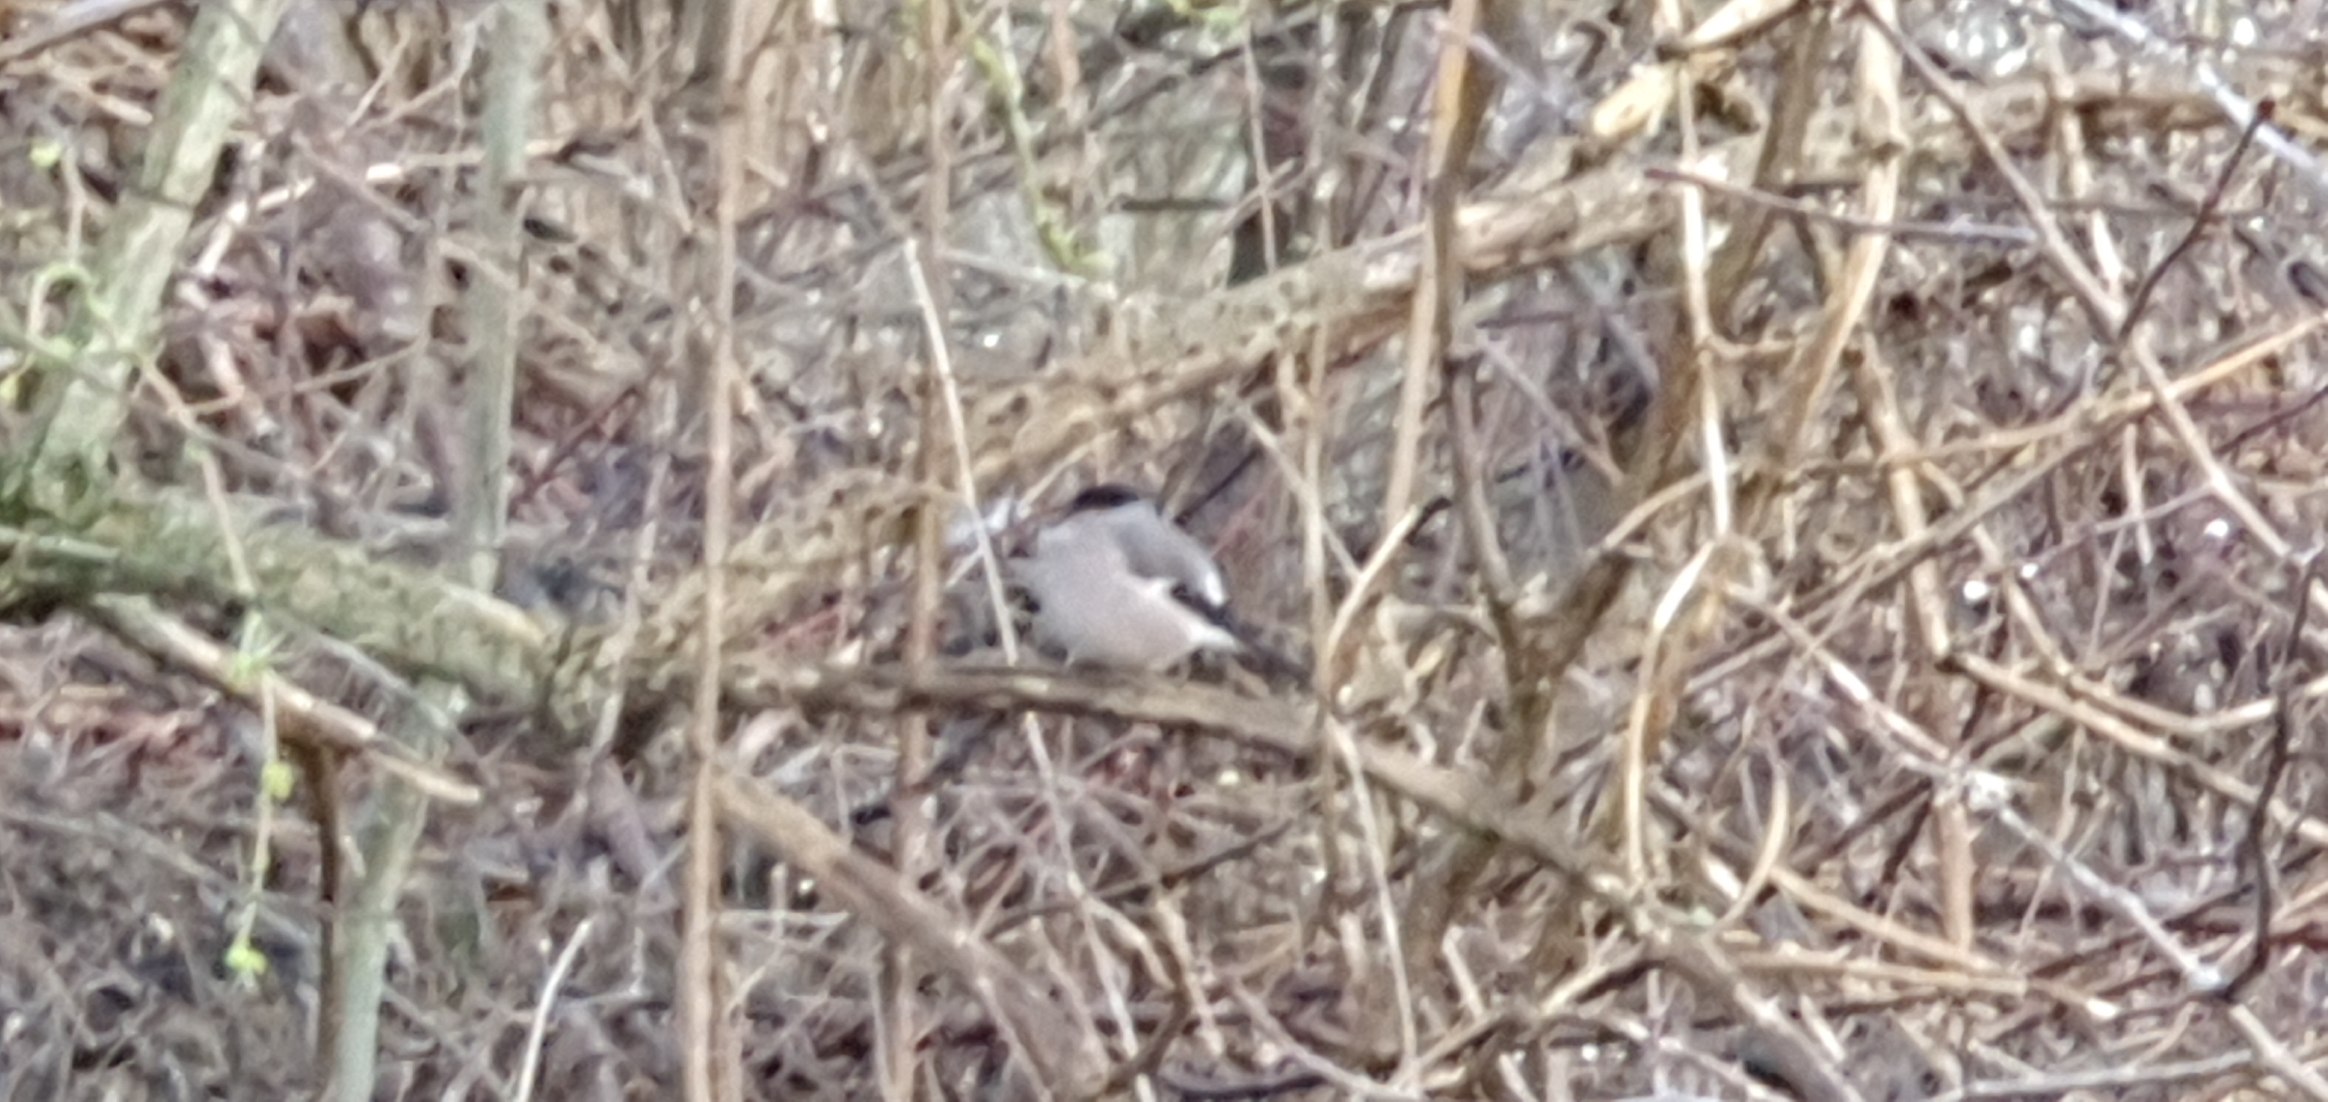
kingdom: Animalia
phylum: Chordata
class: Aves
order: Passeriformes
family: Fringillidae
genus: Pyrrhula
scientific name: Pyrrhula pyrrhula
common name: Dompap
